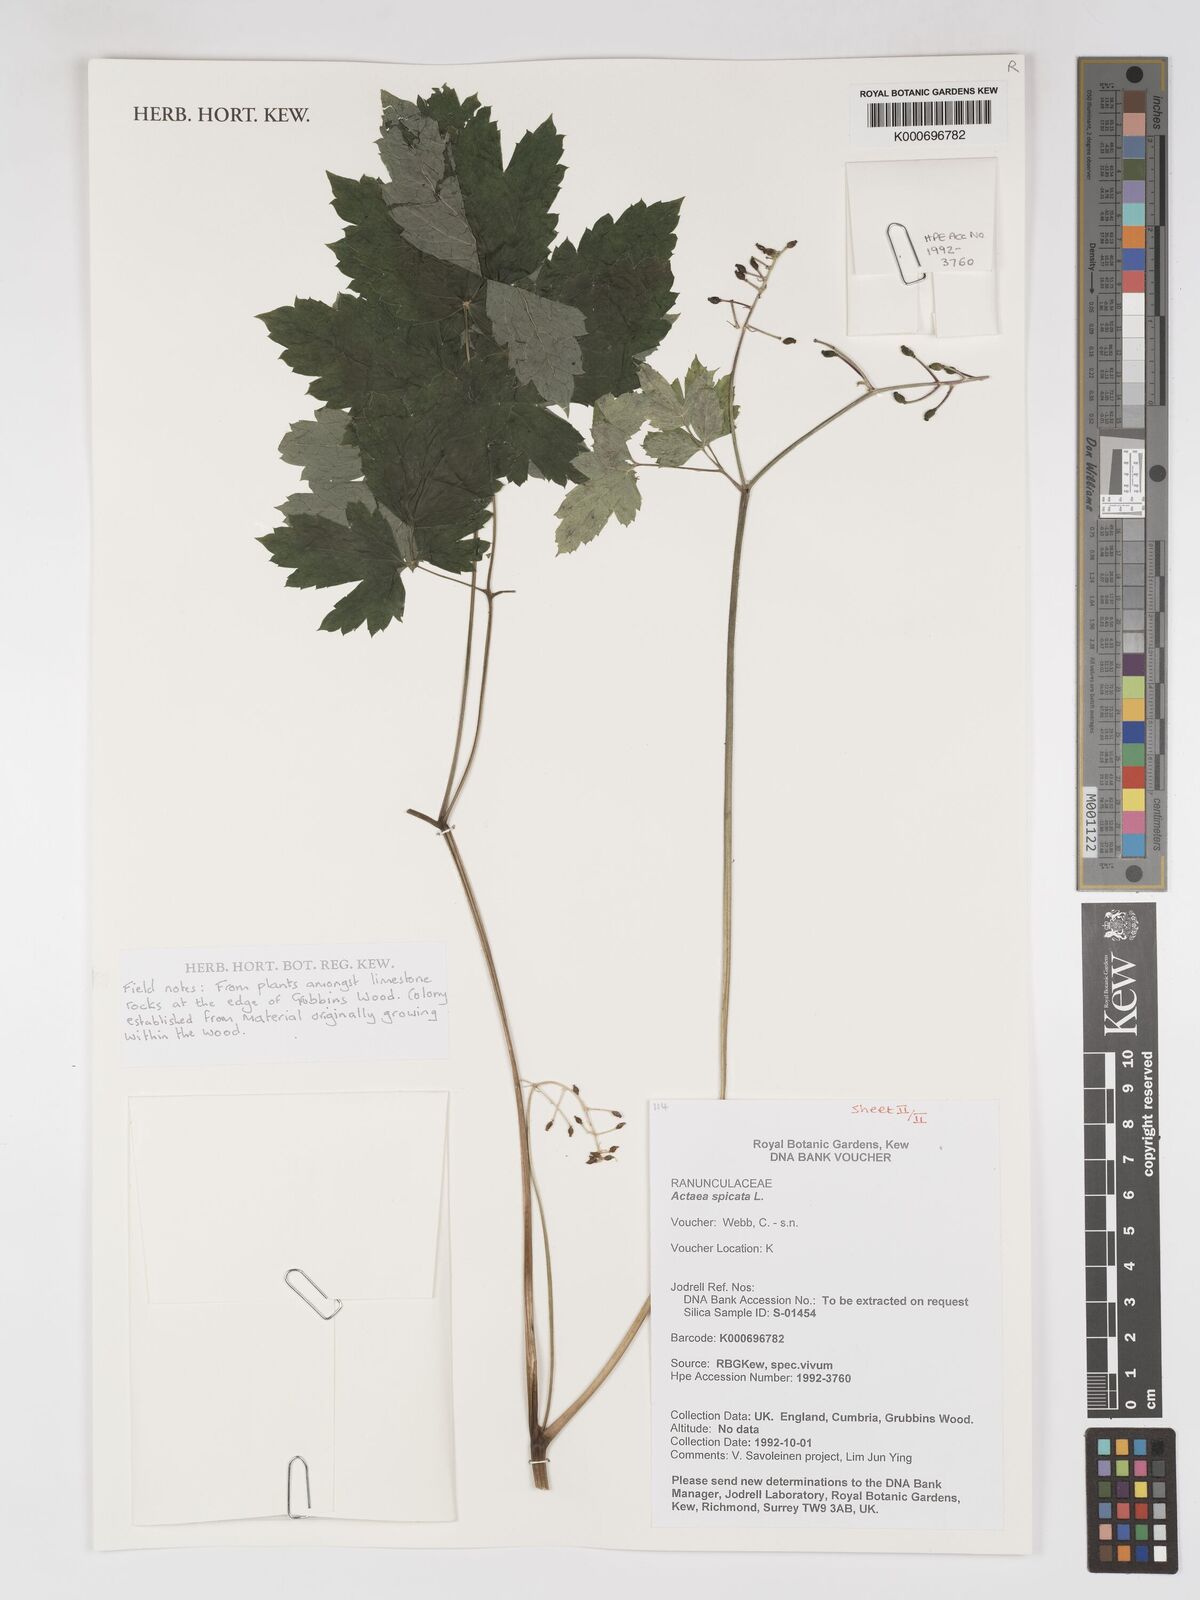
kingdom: Plantae
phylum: Tracheophyta
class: Magnoliopsida
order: Ranunculales
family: Ranunculaceae
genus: Actaea
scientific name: Actaea spicata
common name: Baneberry
